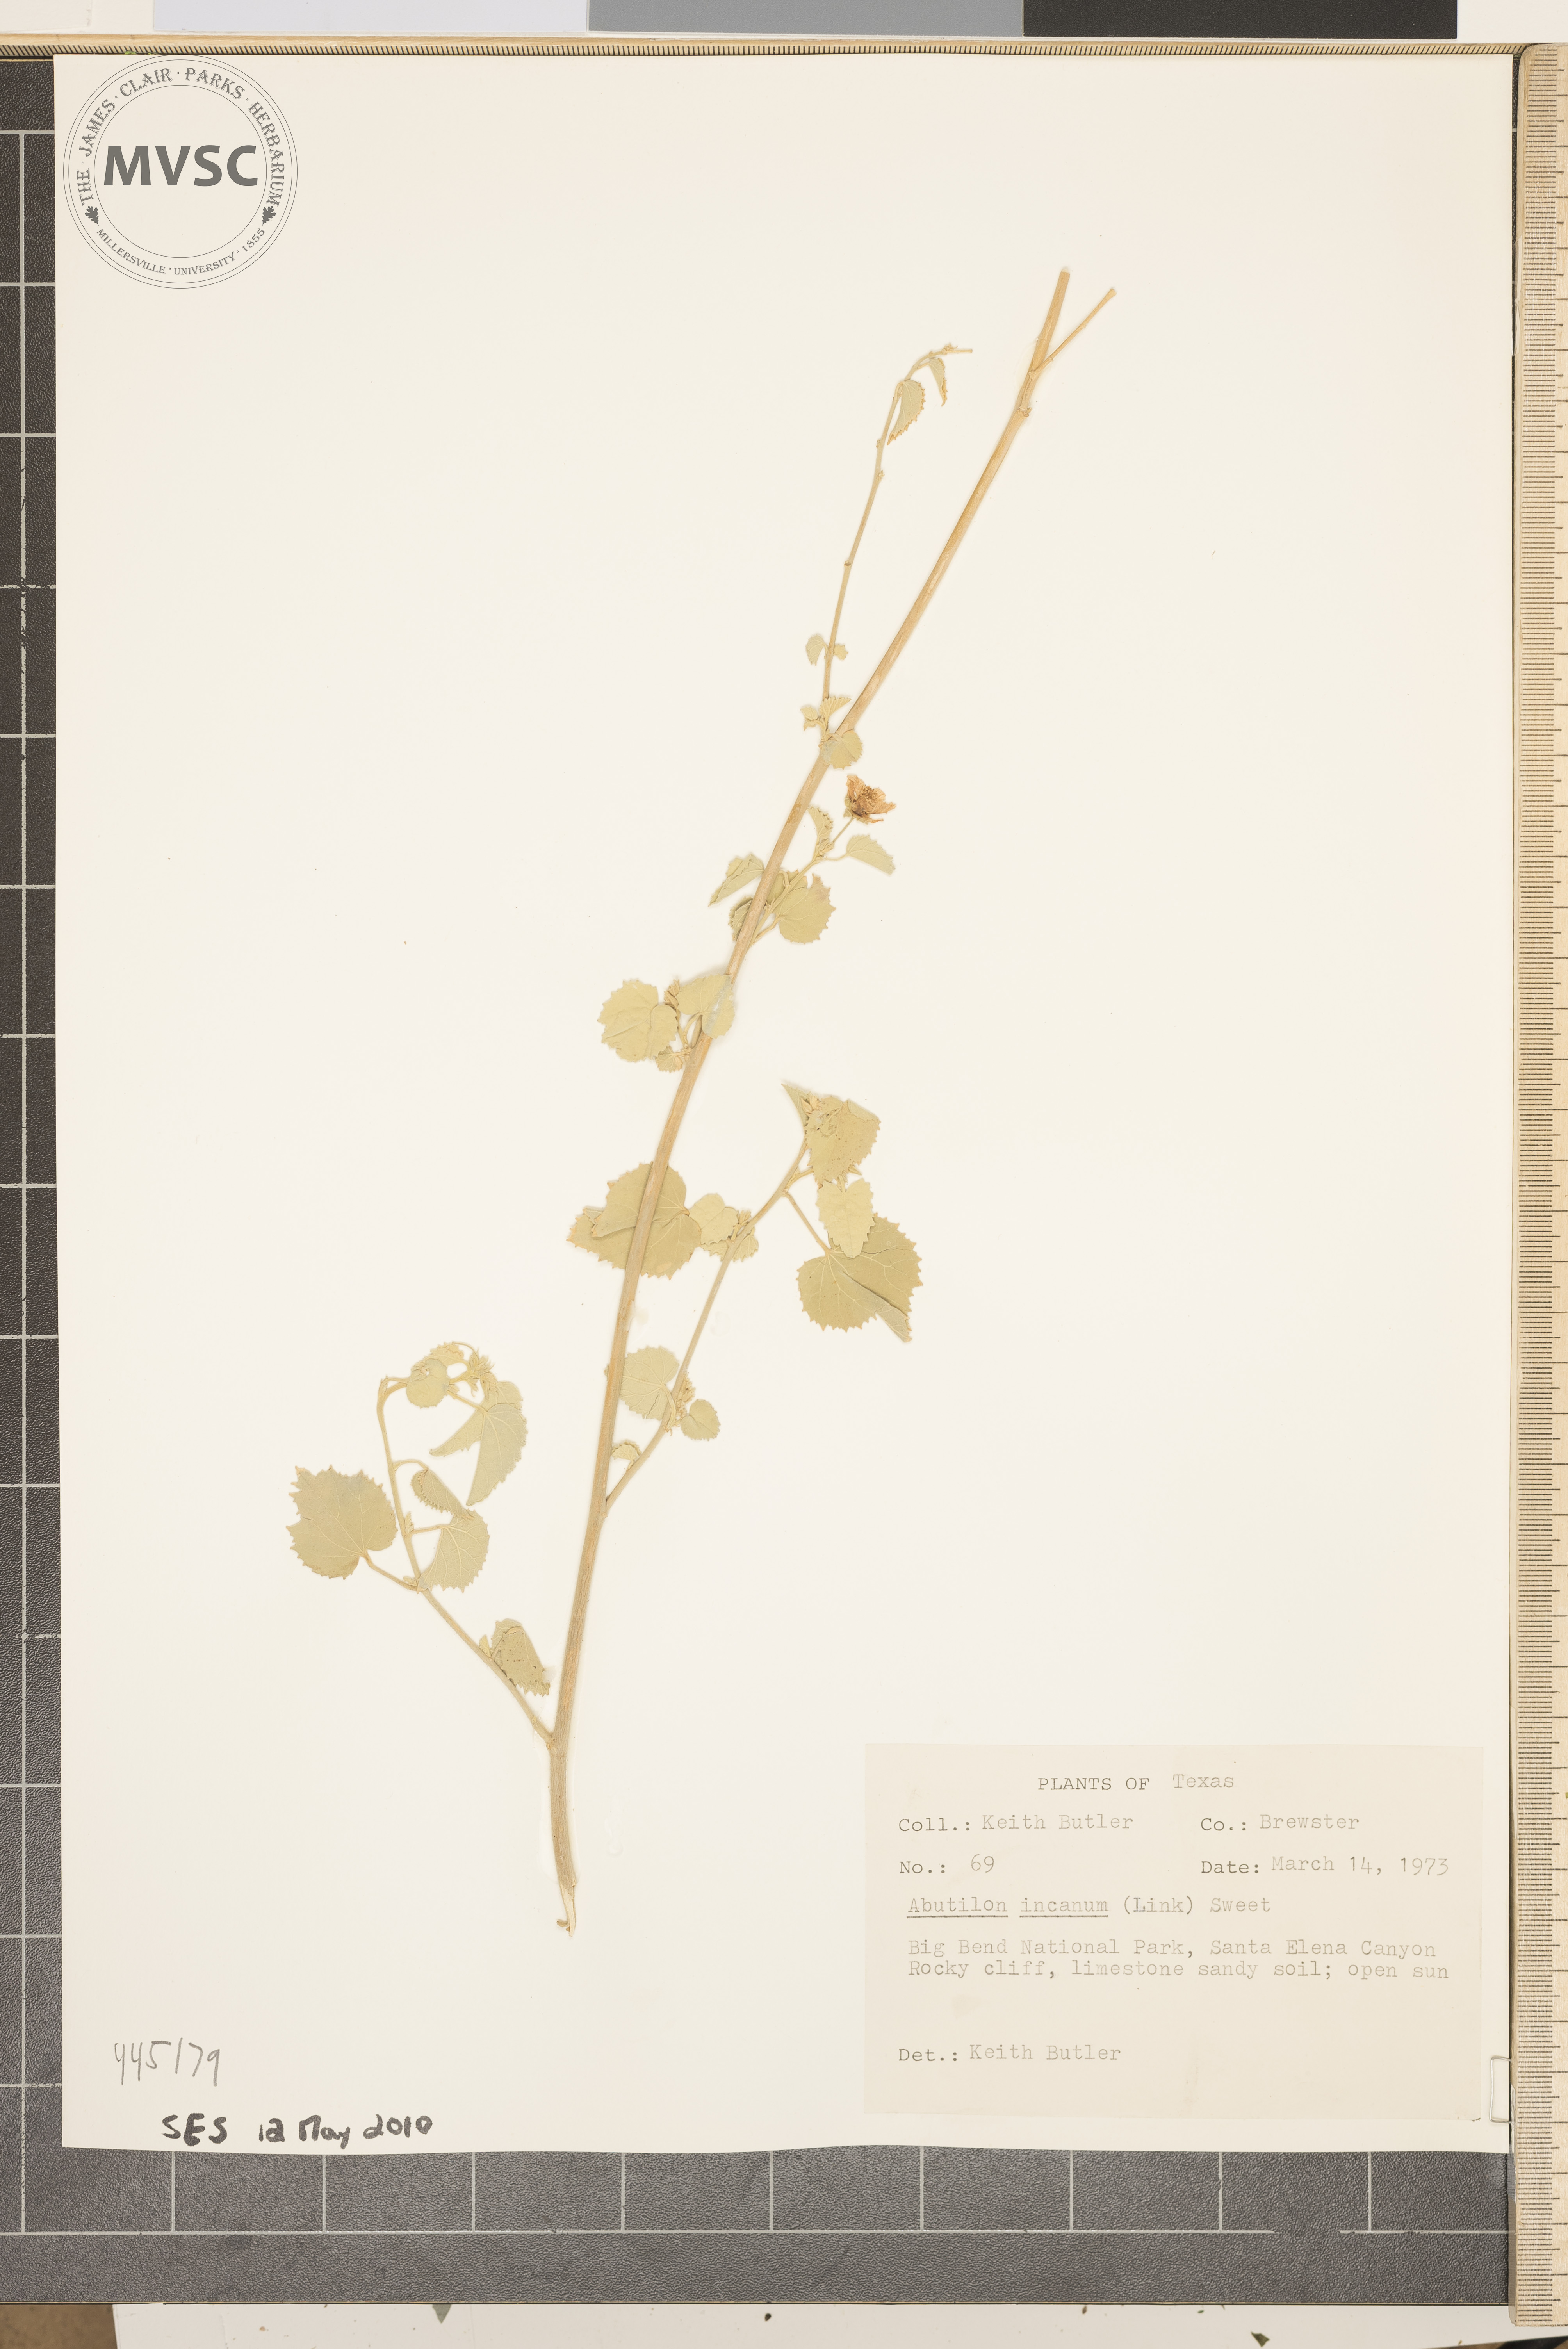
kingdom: Plantae
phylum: Tracheophyta
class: Magnoliopsida
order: Malvales
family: Malvaceae
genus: Abutilon
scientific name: Abutilon incanum
